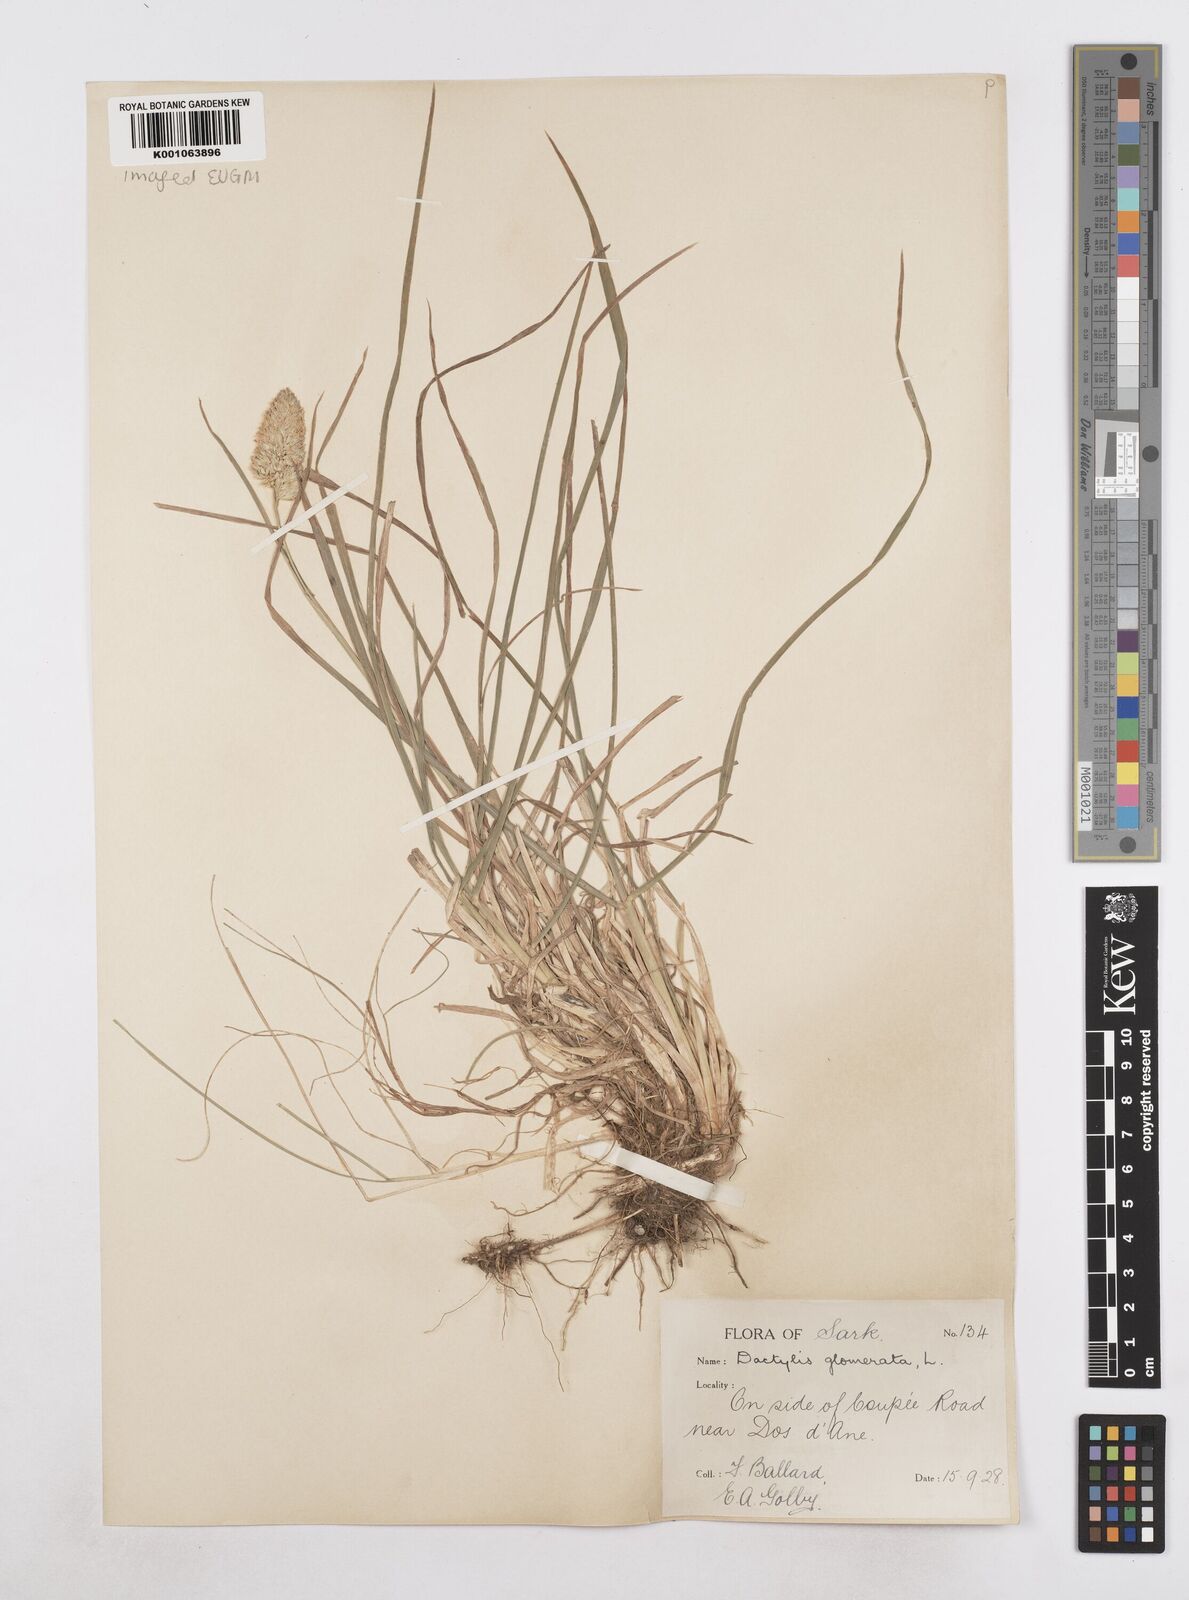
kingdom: Plantae
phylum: Tracheophyta
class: Liliopsida
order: Poales
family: Poaceae
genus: Dactylis
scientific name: Dactylis glomerata
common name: Orchardgrass
